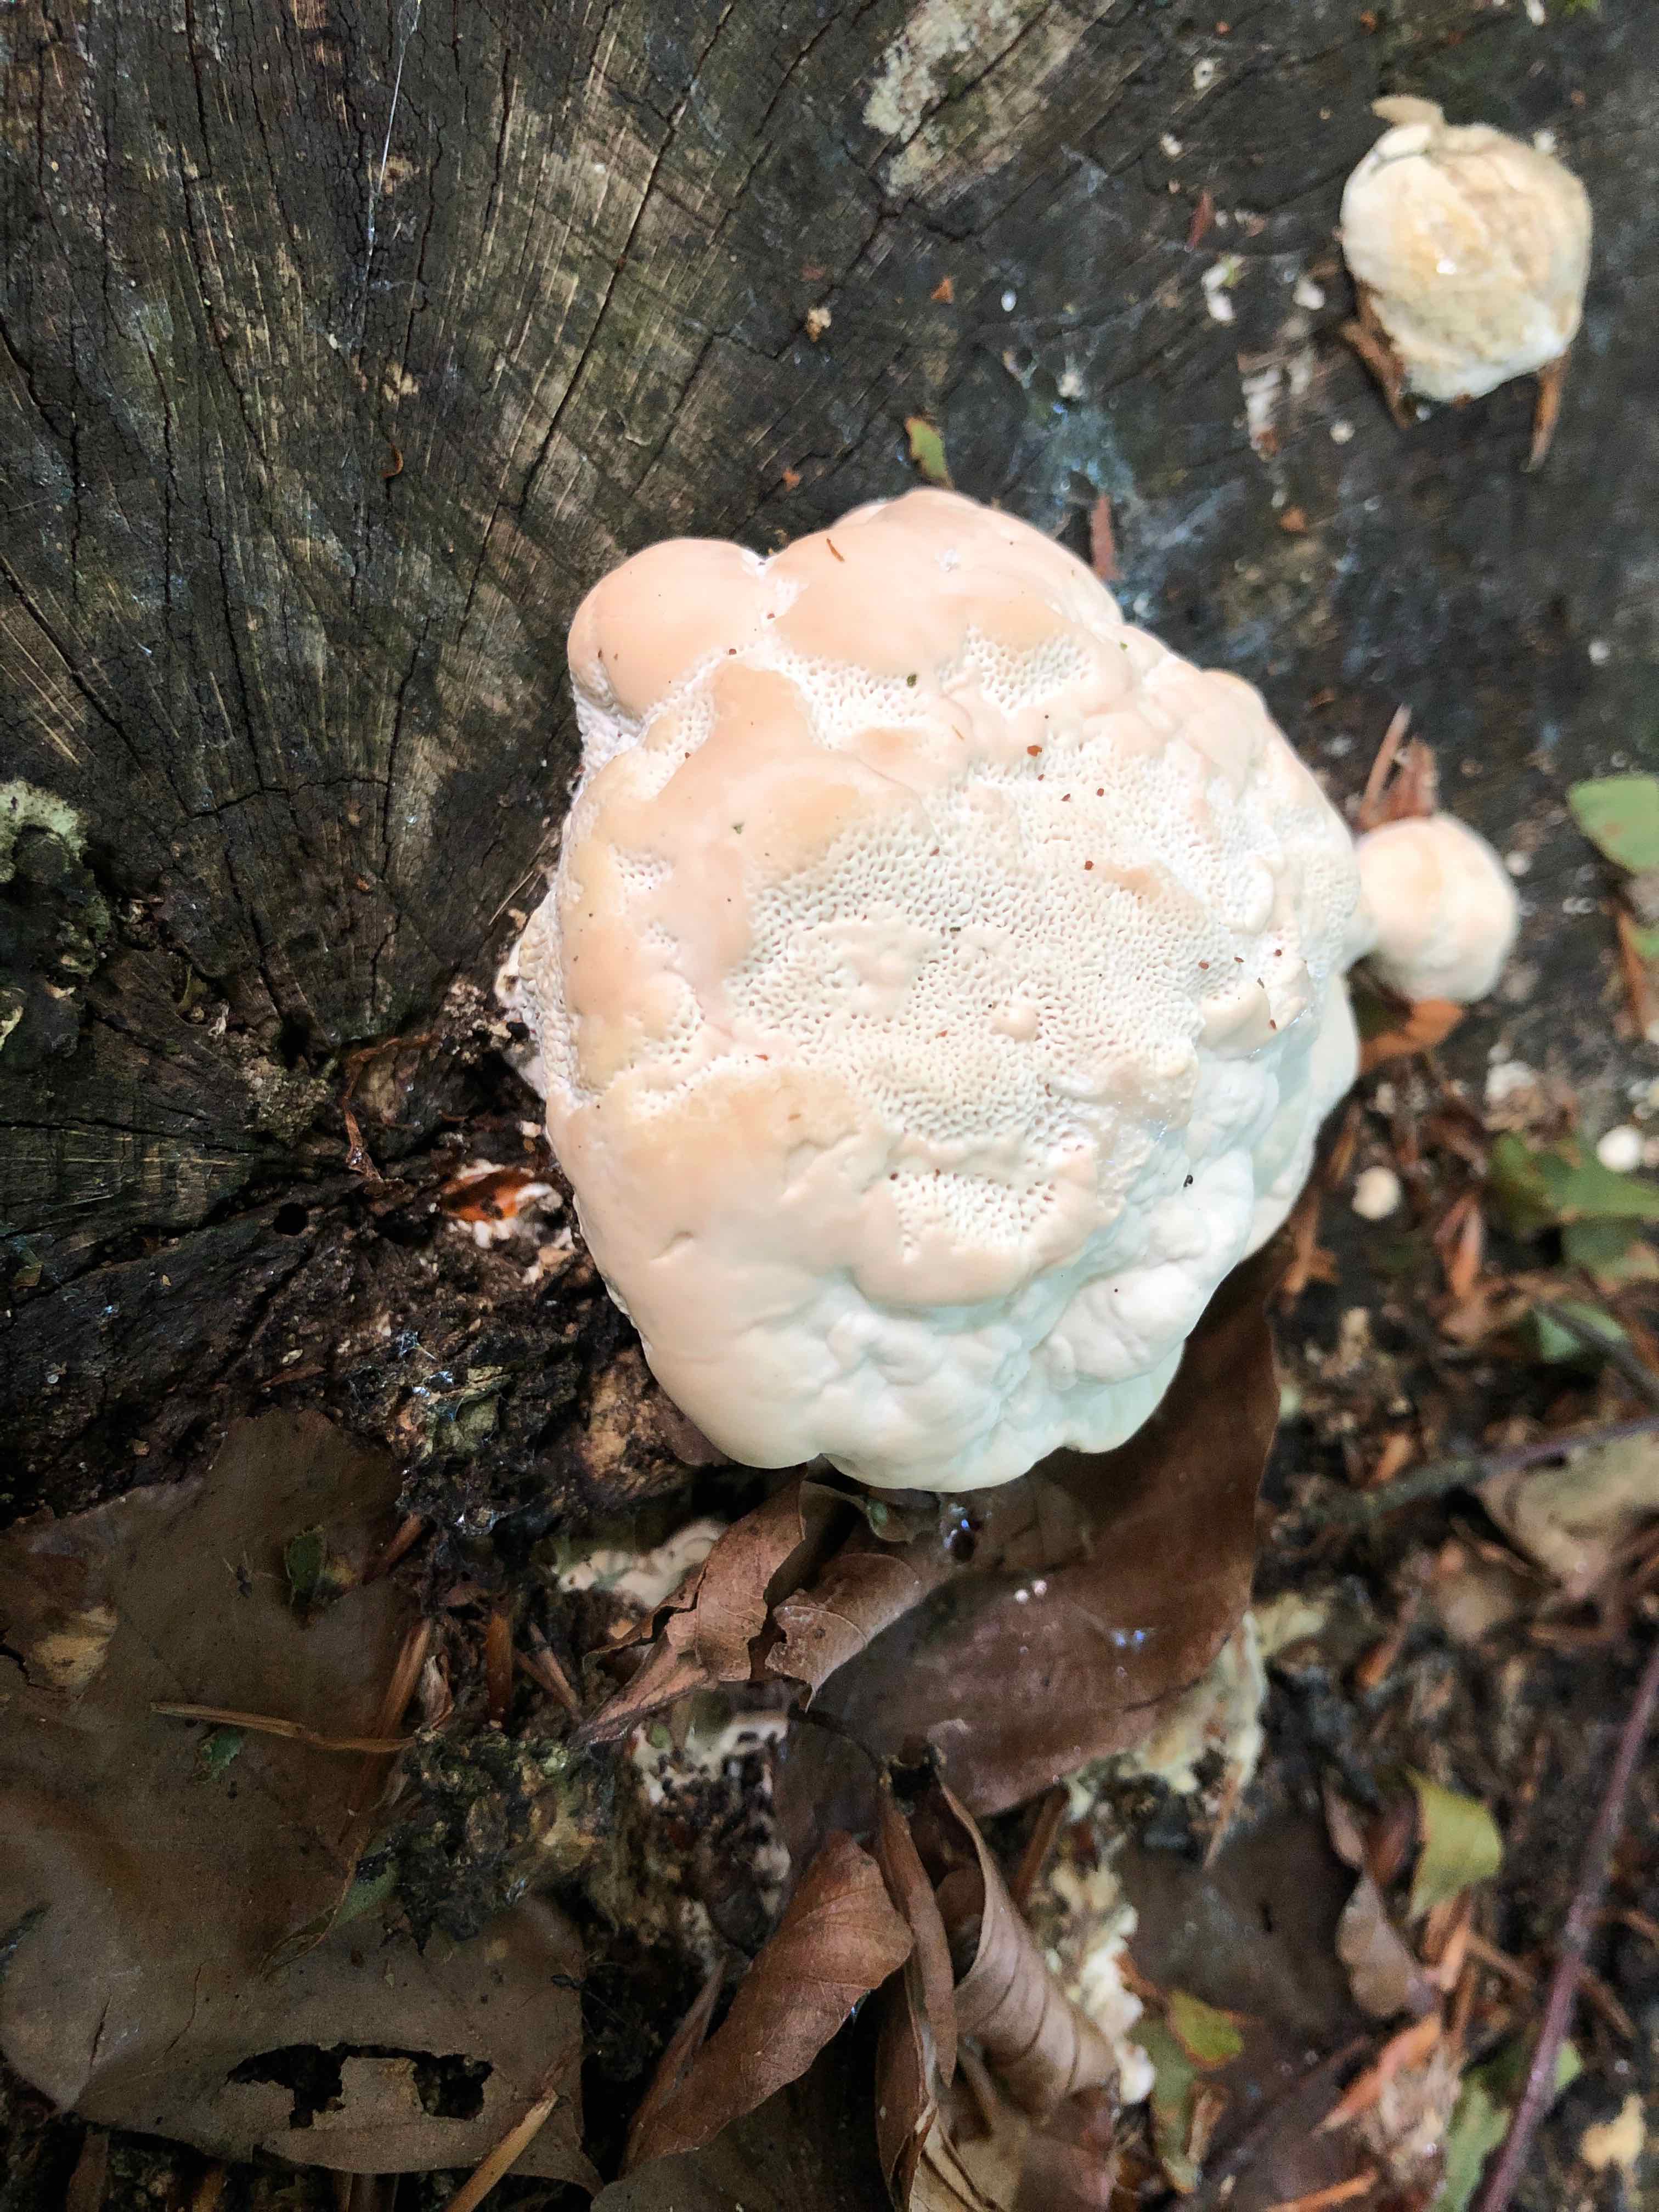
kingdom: Fungi
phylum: Basidiomycota
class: Agaricomycetes
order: Polyporales
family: Polyporaceae
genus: Trametes
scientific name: Trametes gibbosa
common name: puklet læderporesvamp
